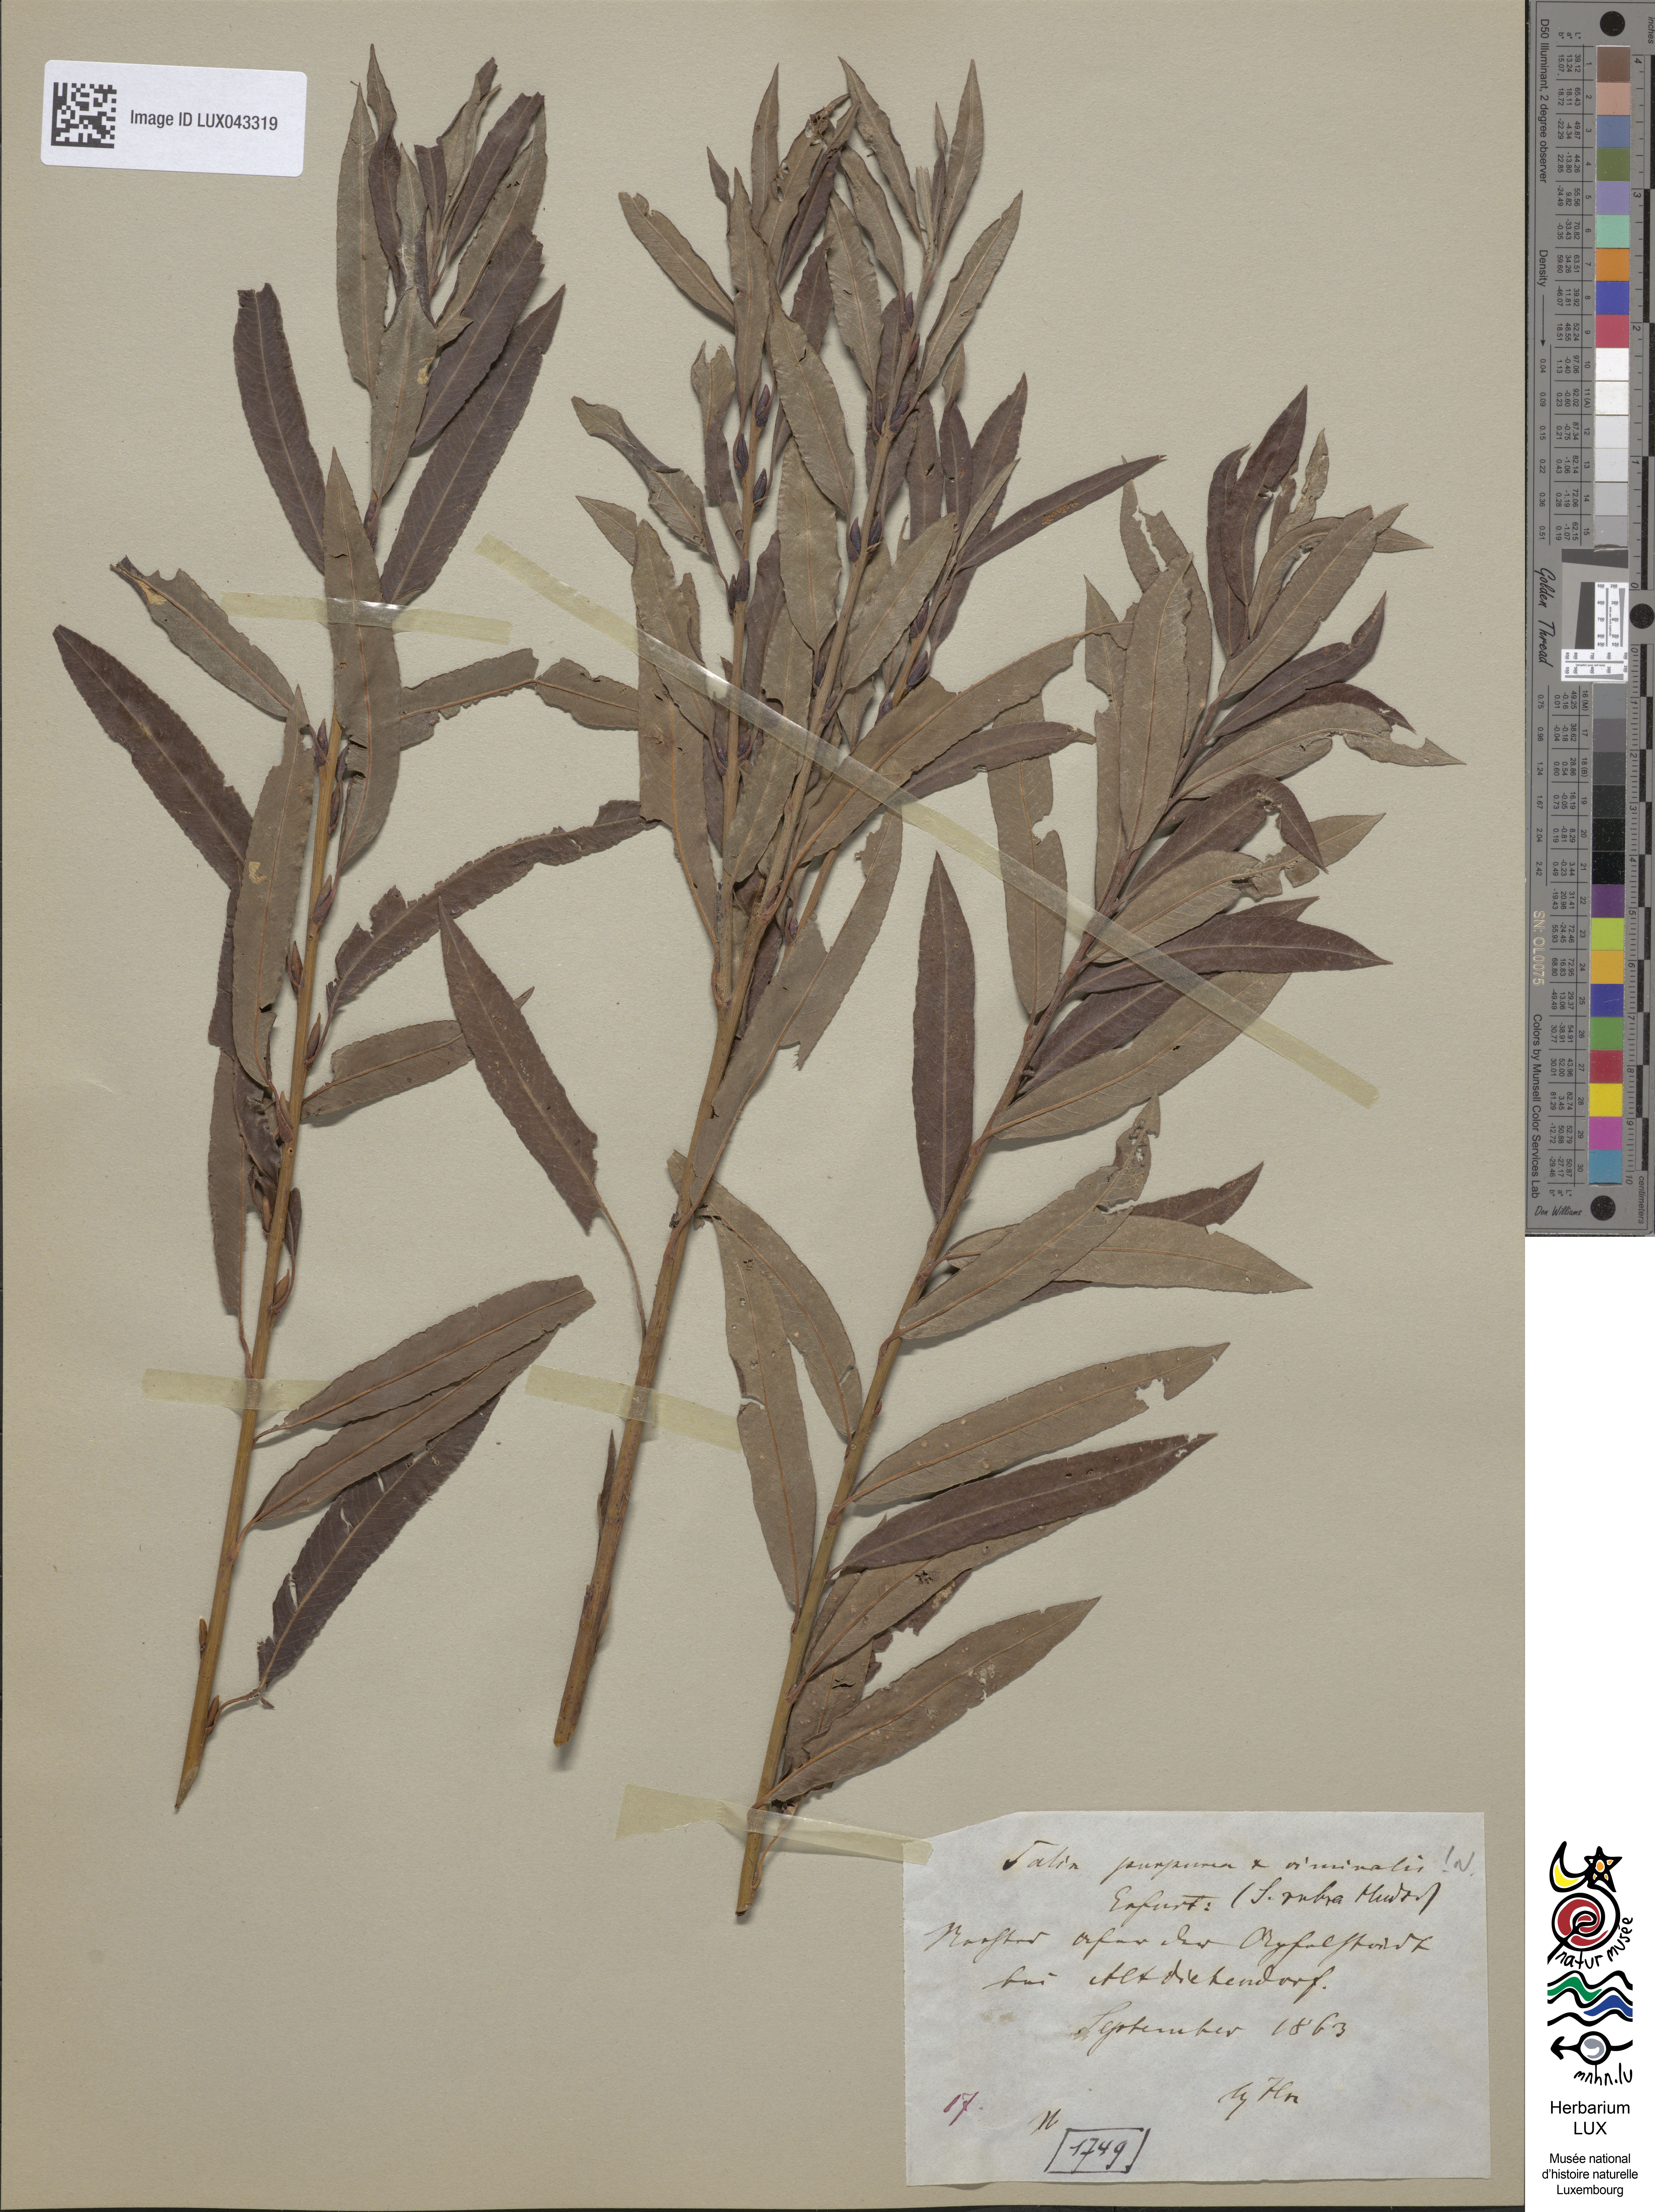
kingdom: Plantae
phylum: Tracheophyta
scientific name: Tracheophyta
